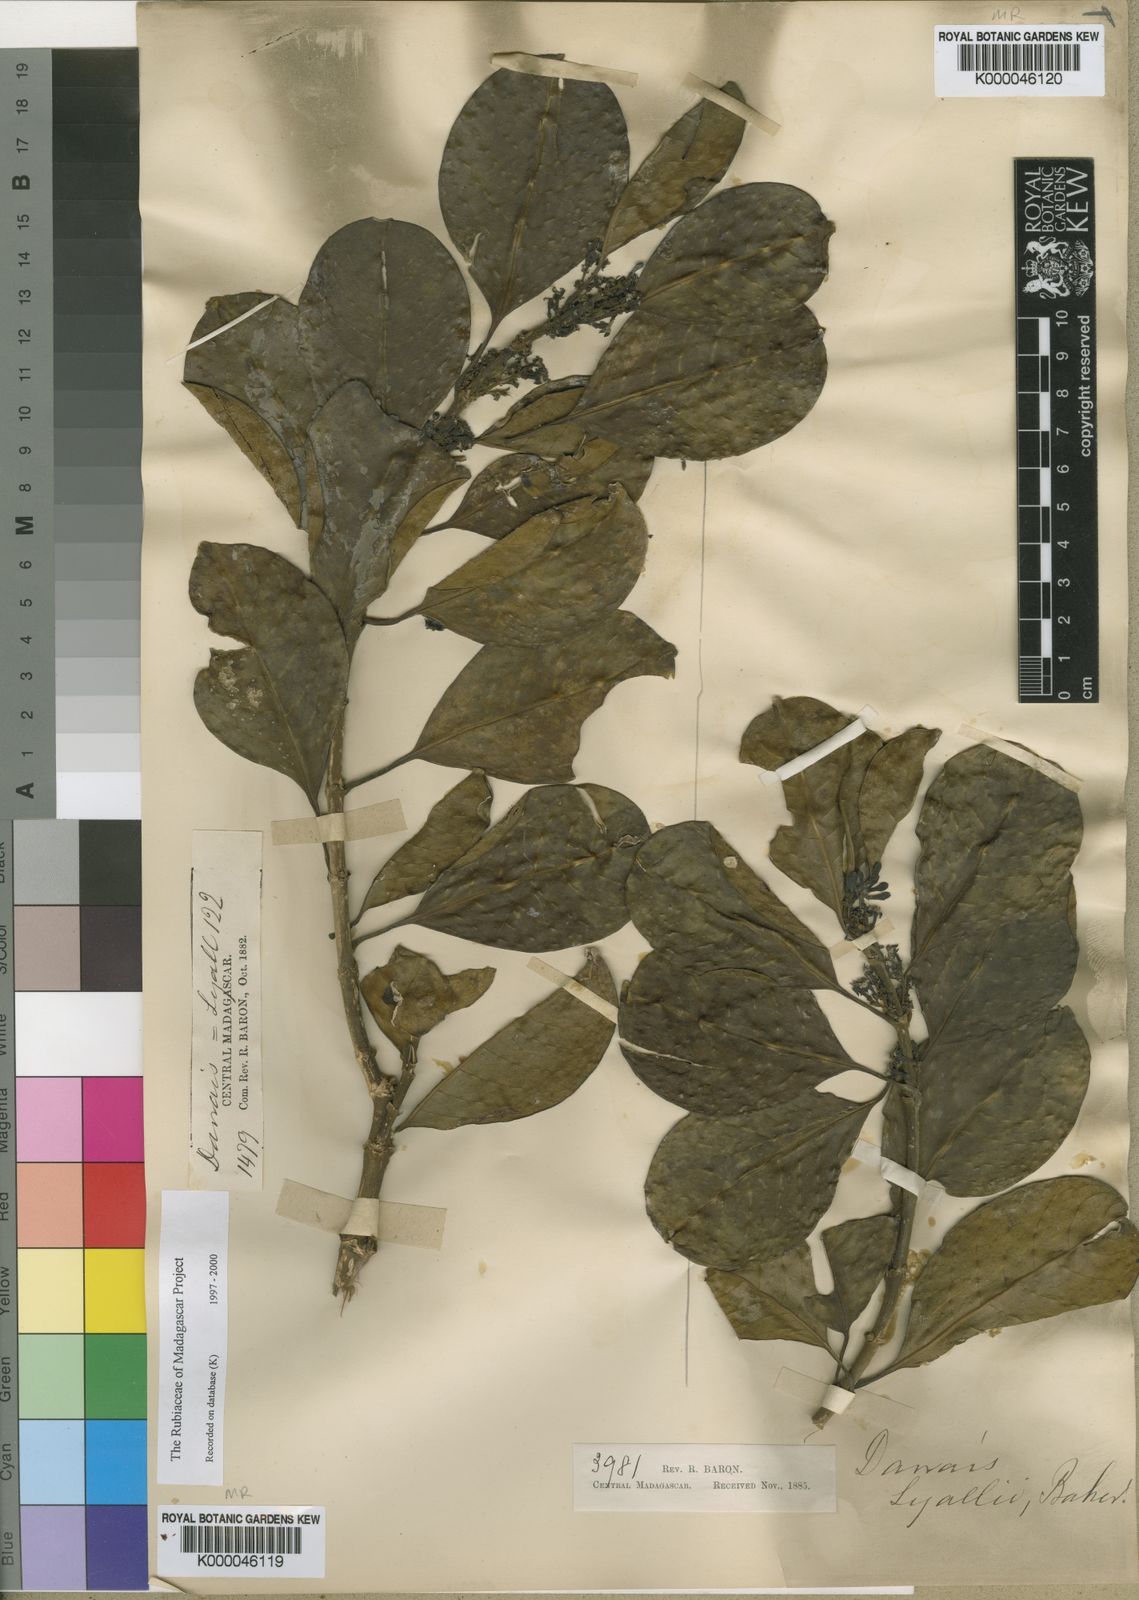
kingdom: Plantae
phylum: Tracheophyta
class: Magnoliopsida
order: Gentianales
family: Rubiaceae
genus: Danais
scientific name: Danais fragrans
